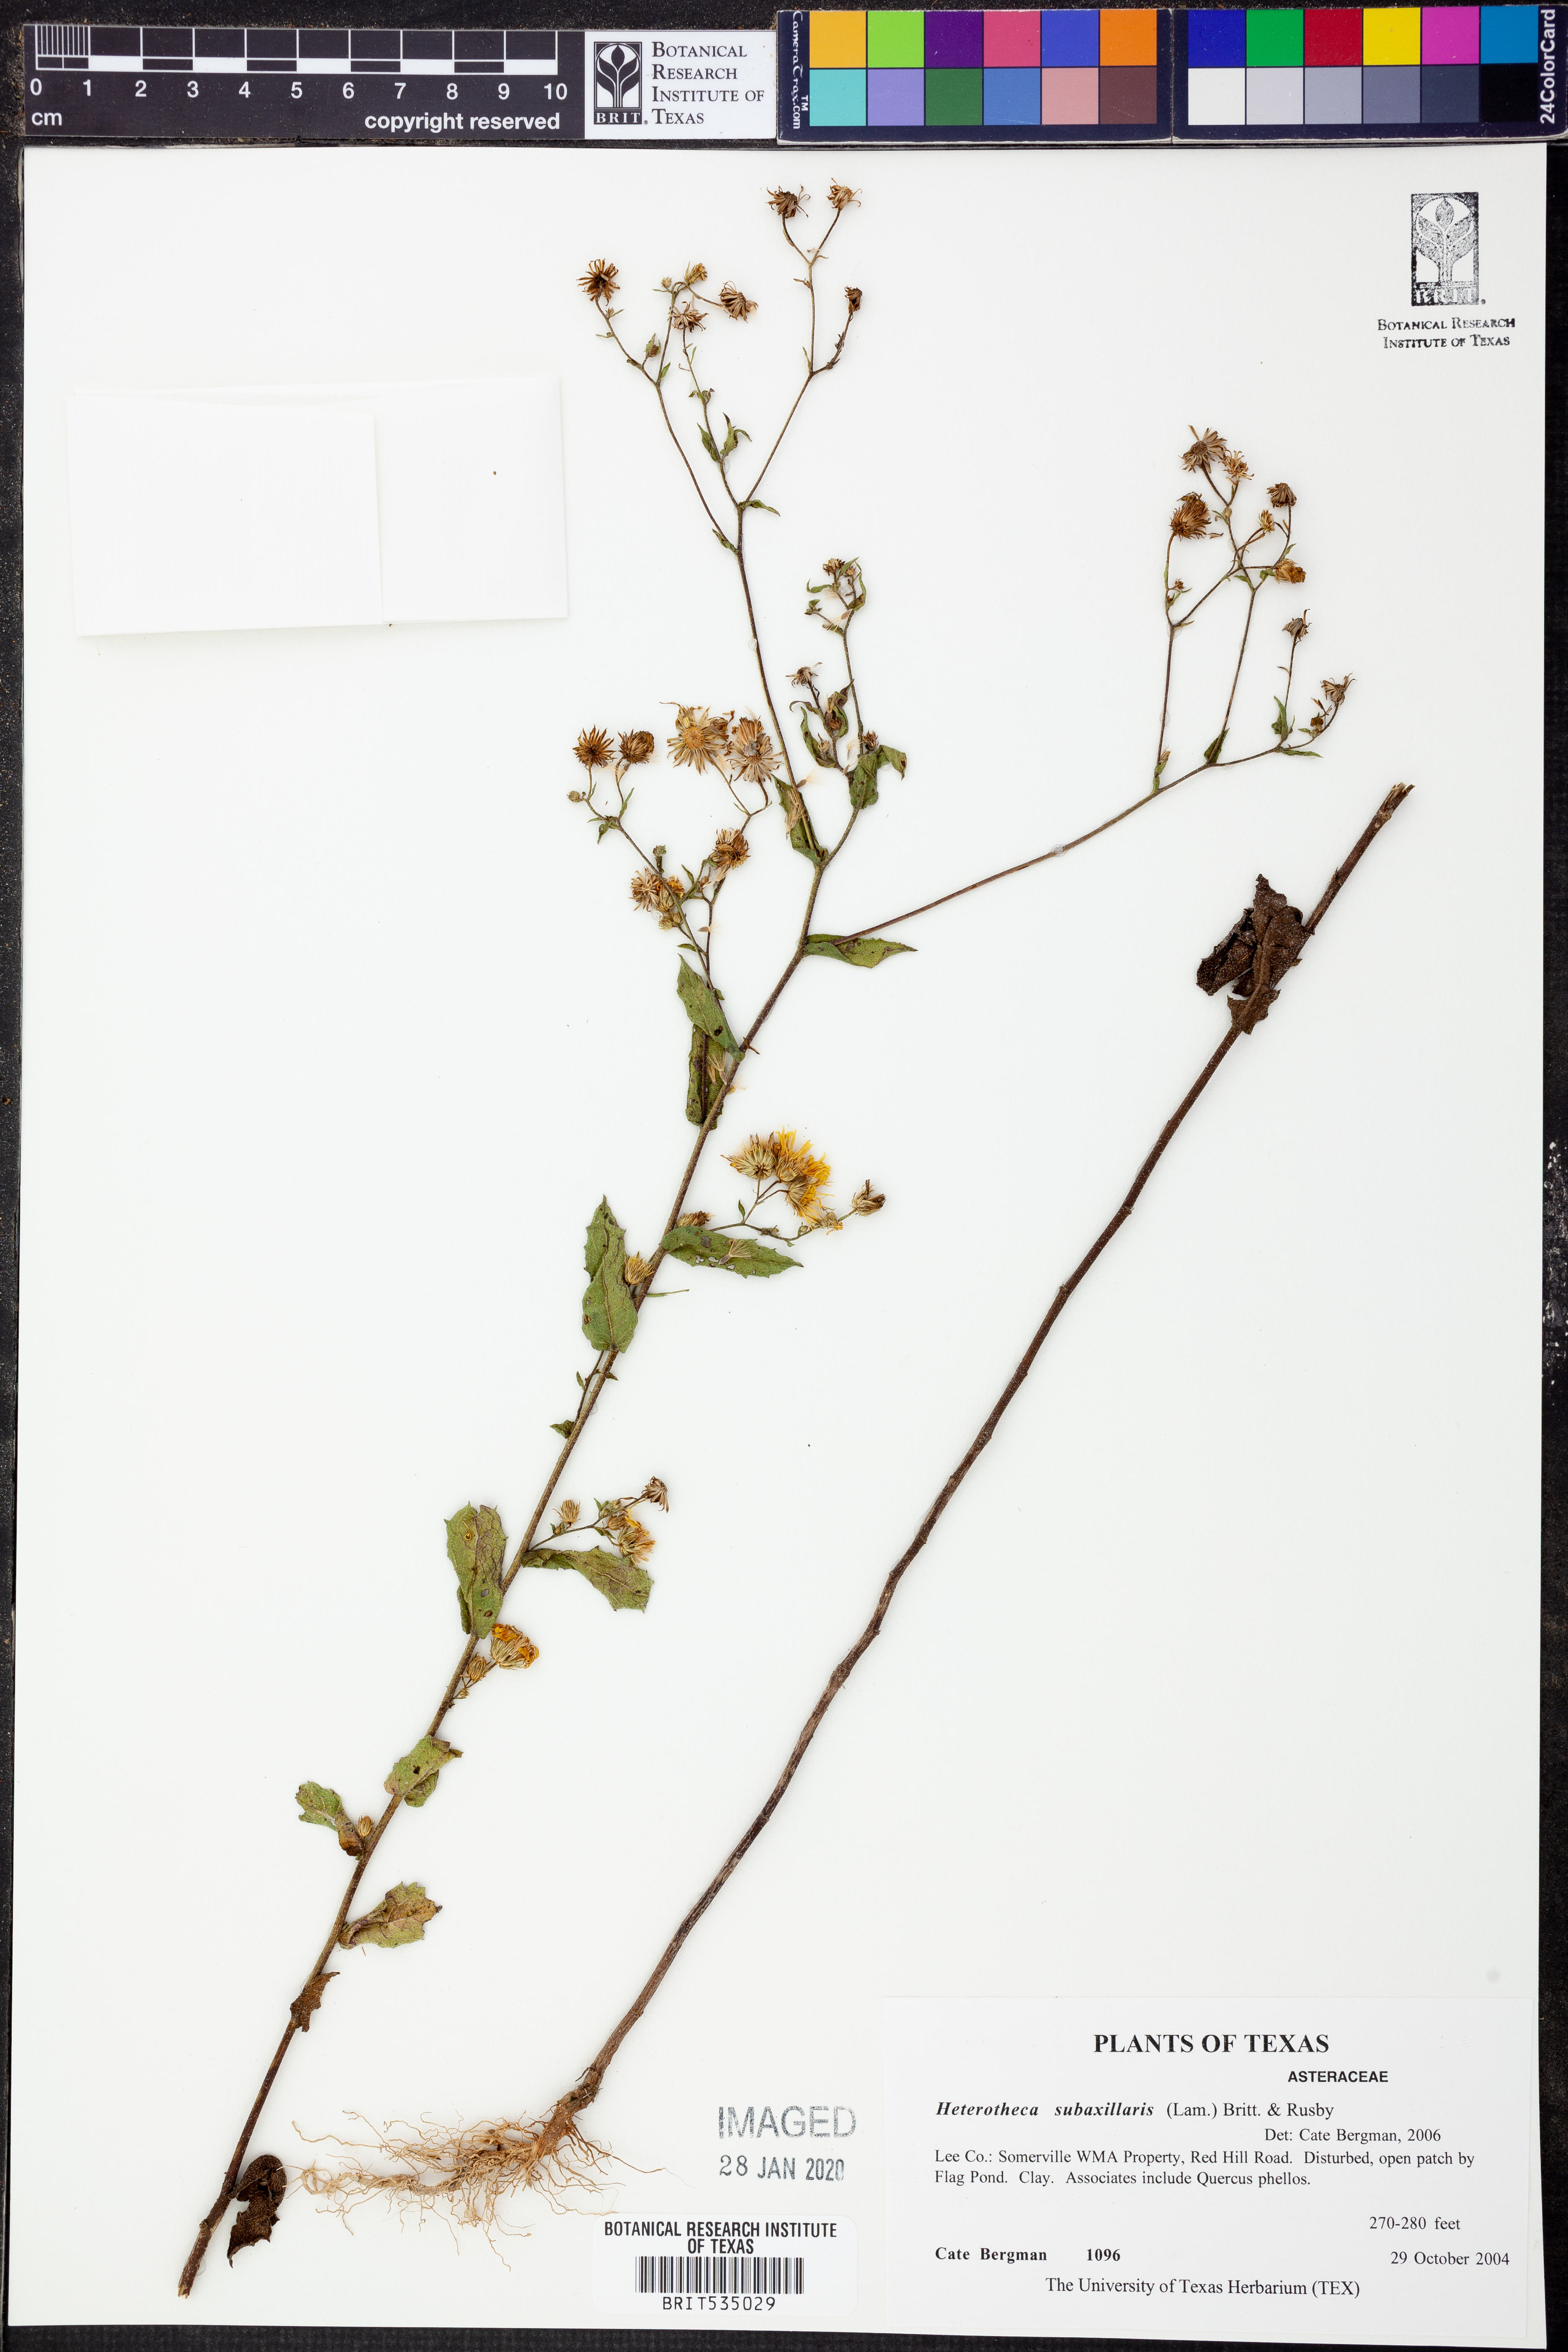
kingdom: Plantae
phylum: Tracheophyta
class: Magnoliopsida
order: Asterales
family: Asteraceae
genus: Heterotheca
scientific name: Heterotheca subaxillaris
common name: Camphorweed
